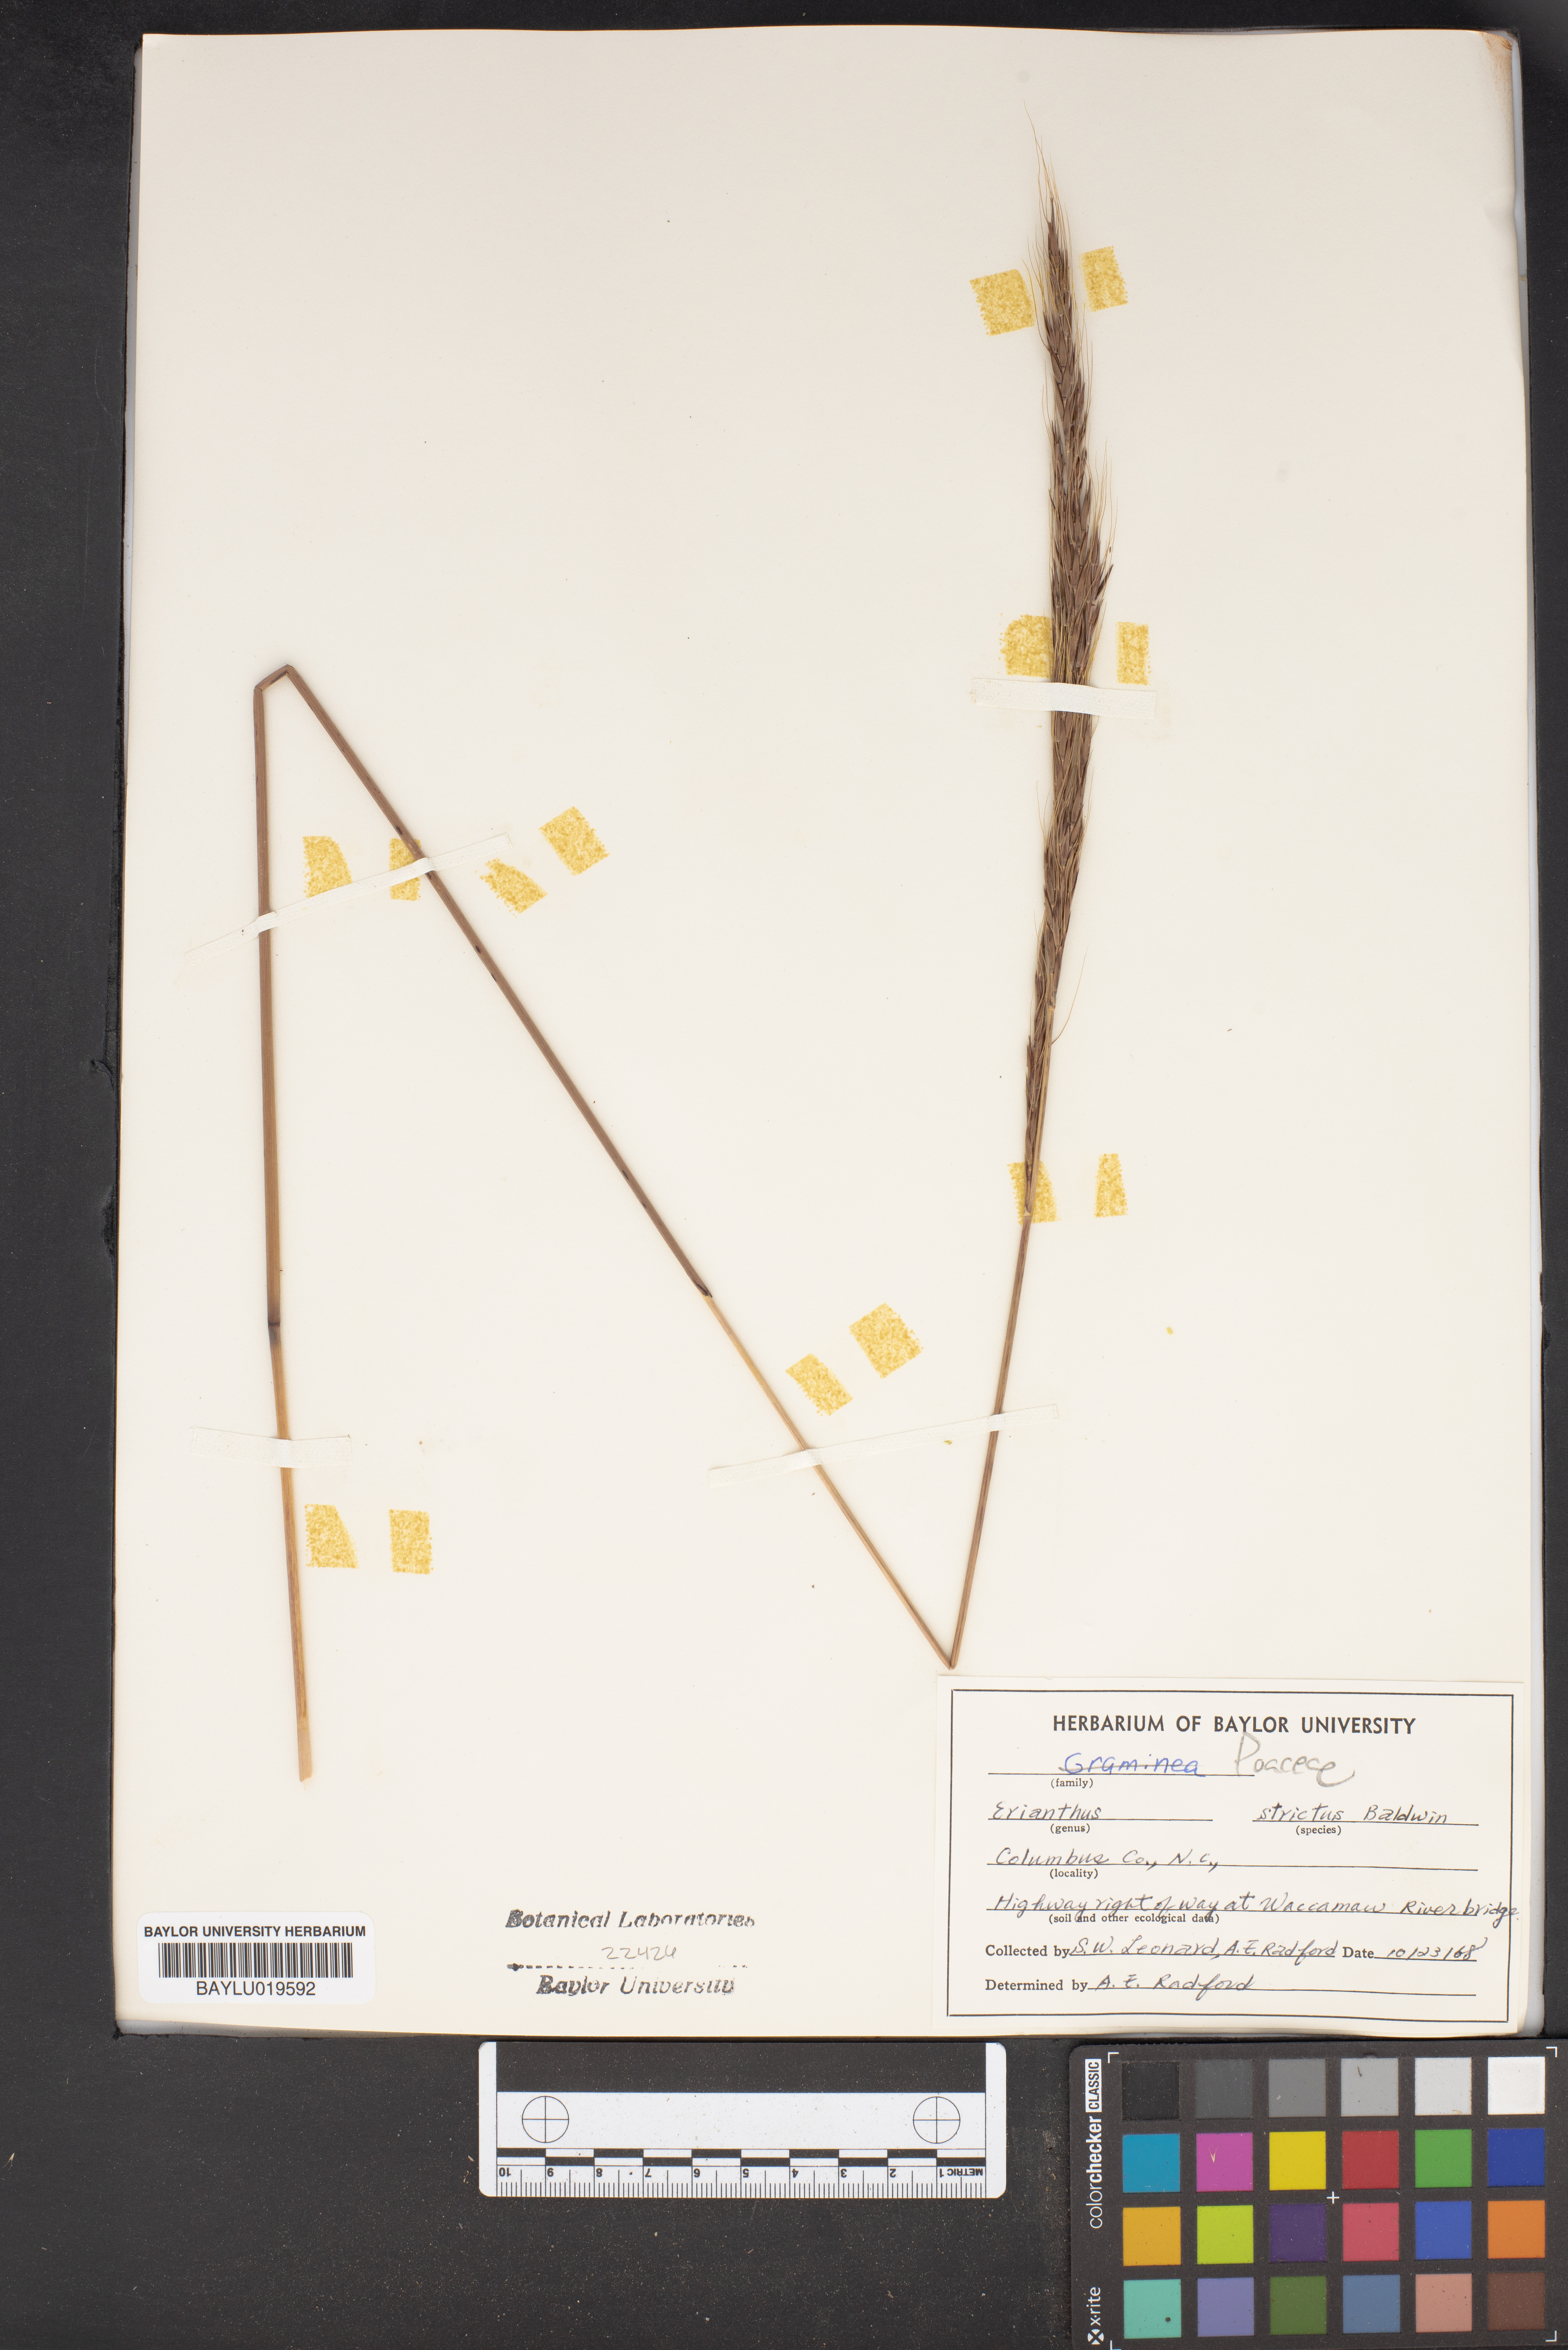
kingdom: Plantae
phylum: Tracheophyta
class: Liliopsida
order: Poales
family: Poaceae
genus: Erianthus
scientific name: Erianthus strictus
